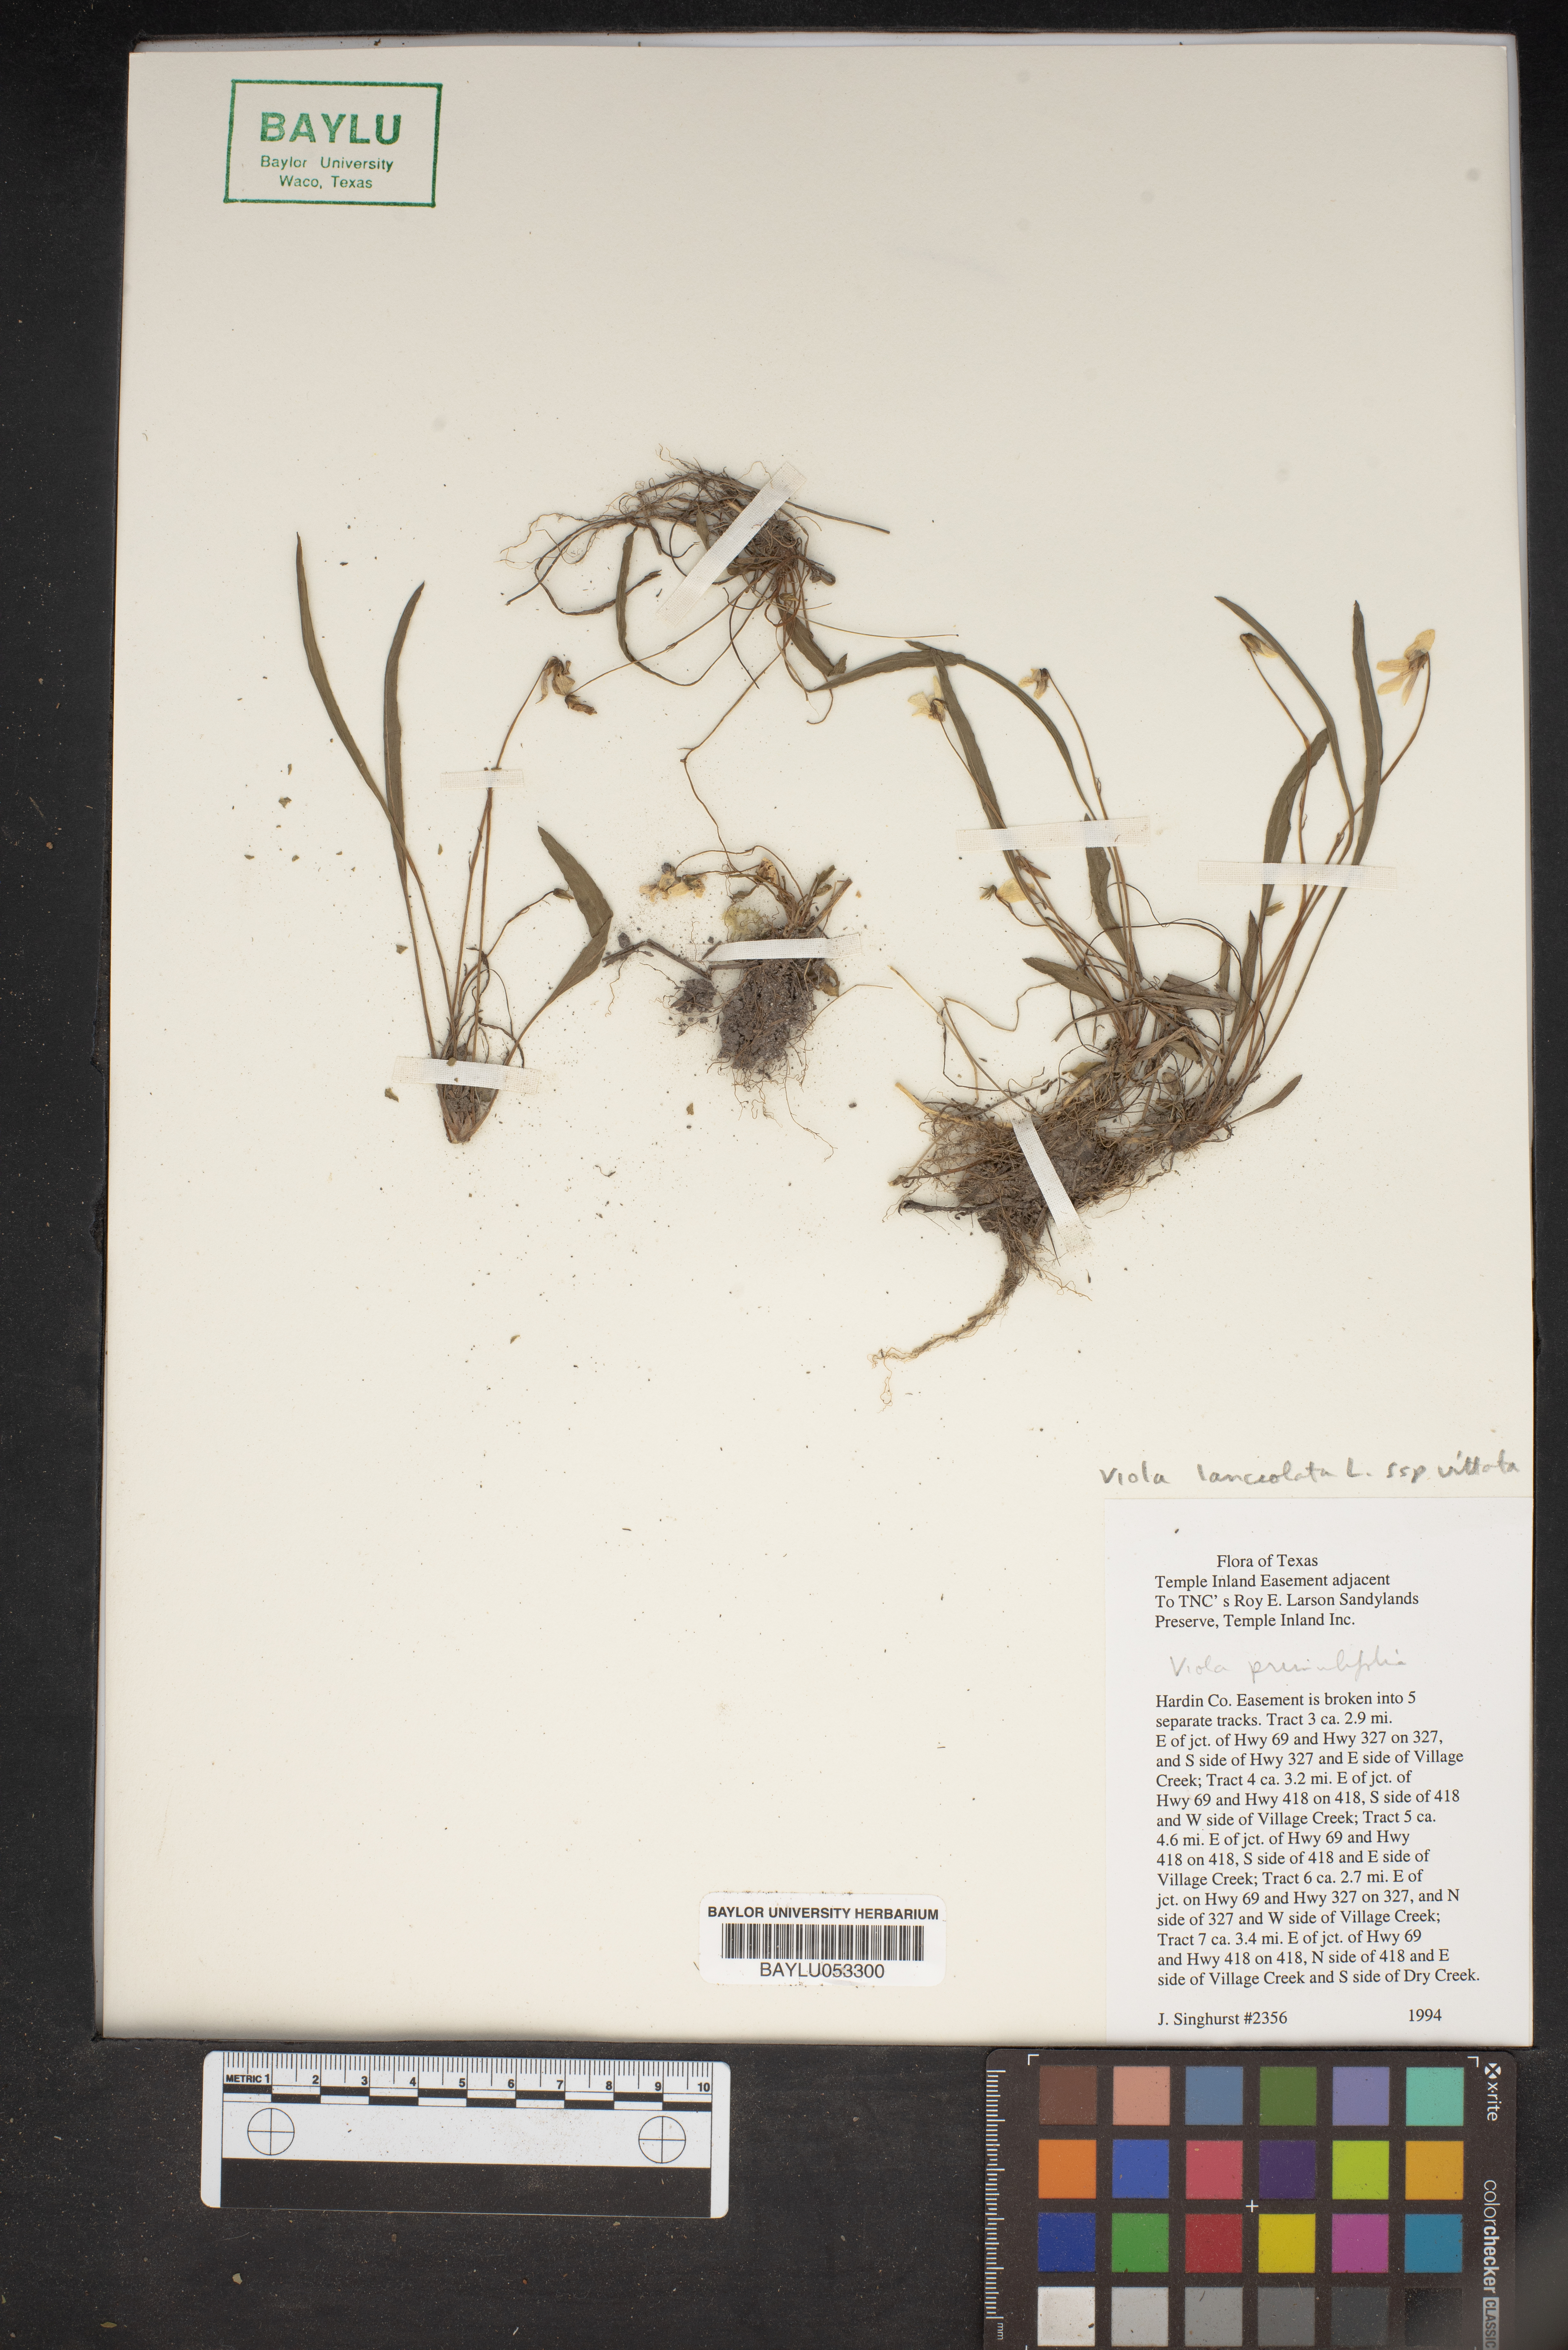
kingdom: Plantae
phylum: Tracheophyta
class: Magnoliopsida
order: Malpighiales
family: Violaceae
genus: Viola
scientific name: Viola lanceolata
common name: Bog white violet
